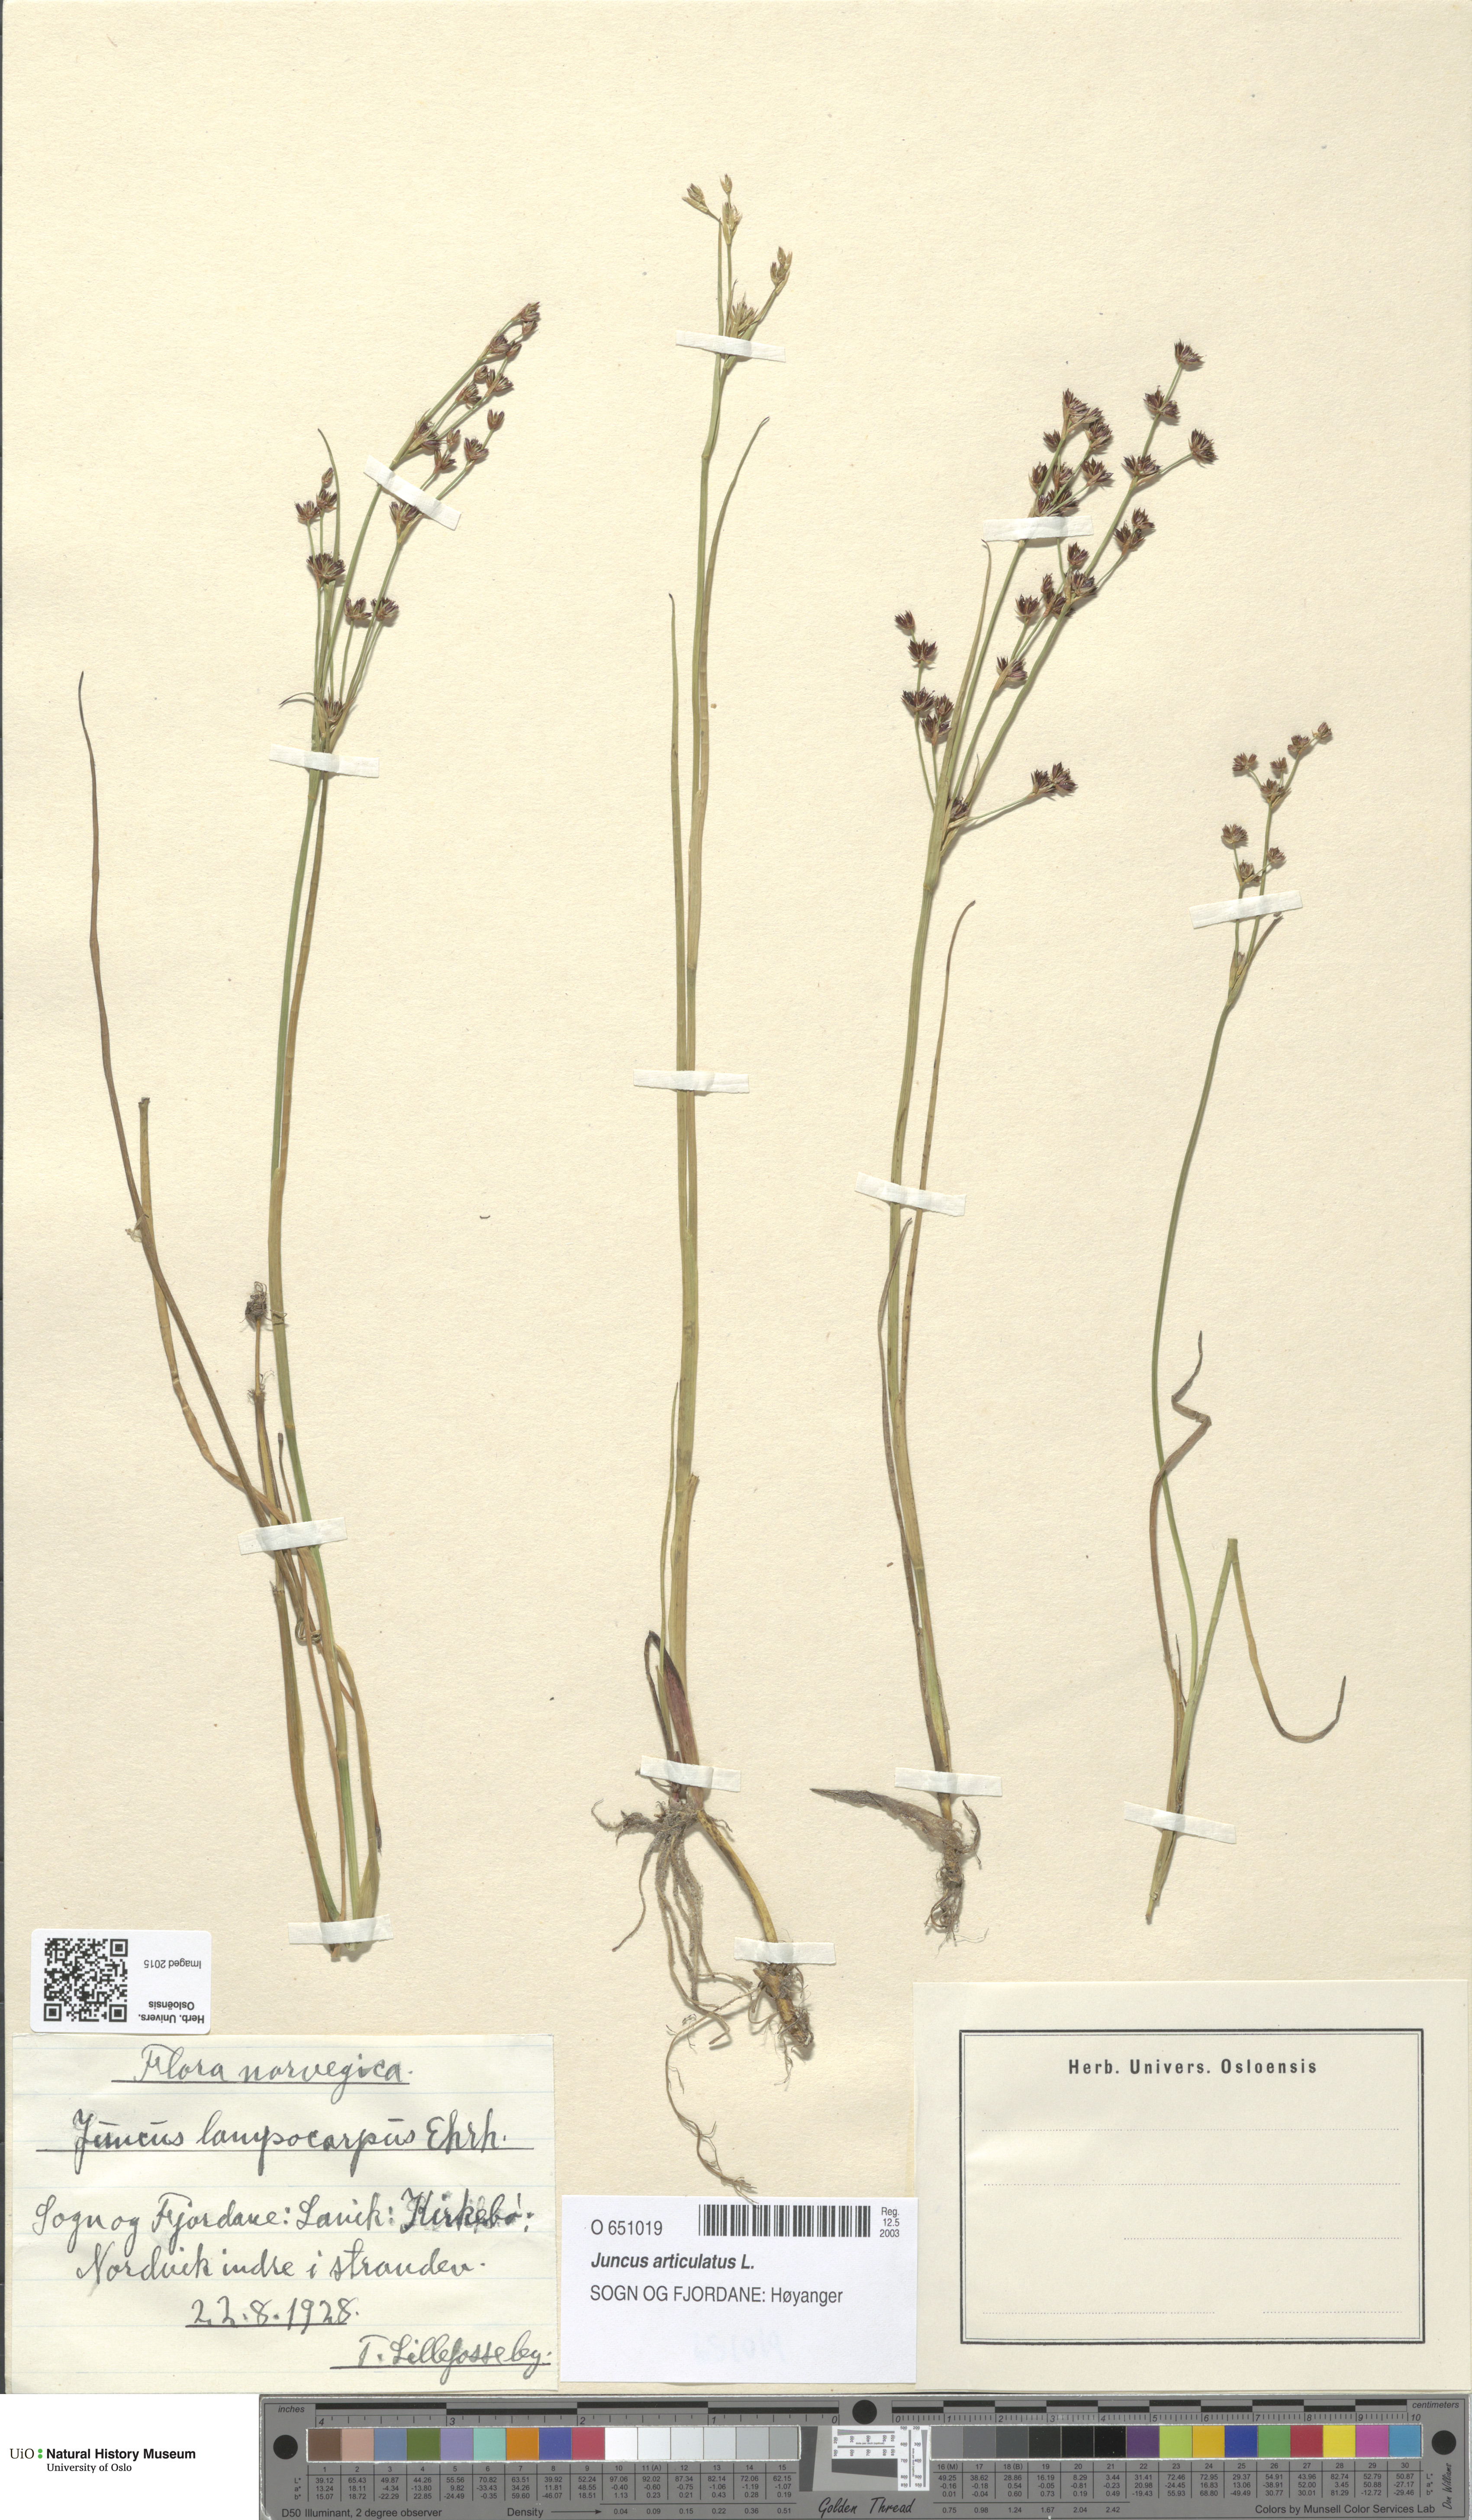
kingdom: Plantae
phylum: Tracheophyta
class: Liliopsida
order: Poales
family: Juncaceae
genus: Juncus
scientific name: Juncus articulatus
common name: Jointed rush
